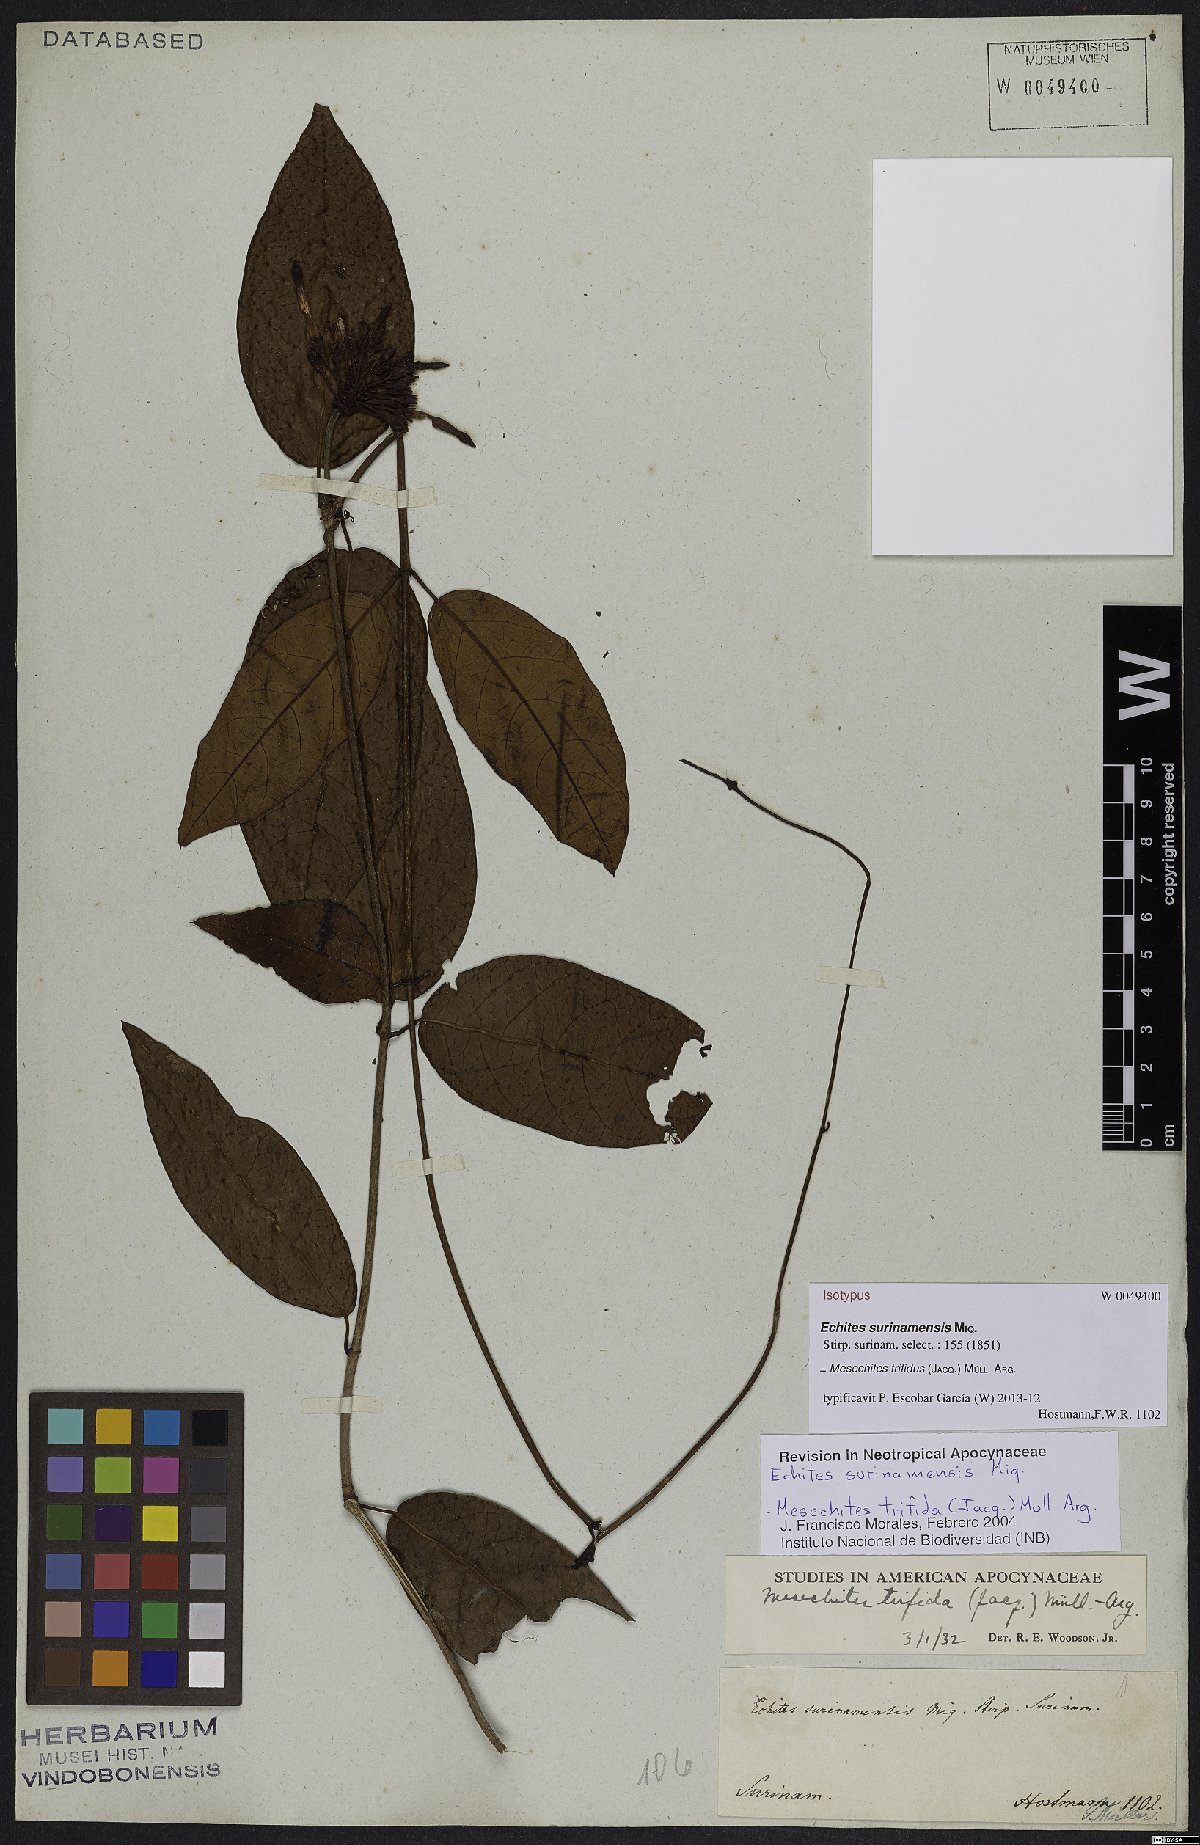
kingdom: Plantae
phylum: Tracheophyta
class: Magnoliopsida
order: Gentianales
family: Apocynaceae
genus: Mesechites
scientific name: Mesechites trifidus
